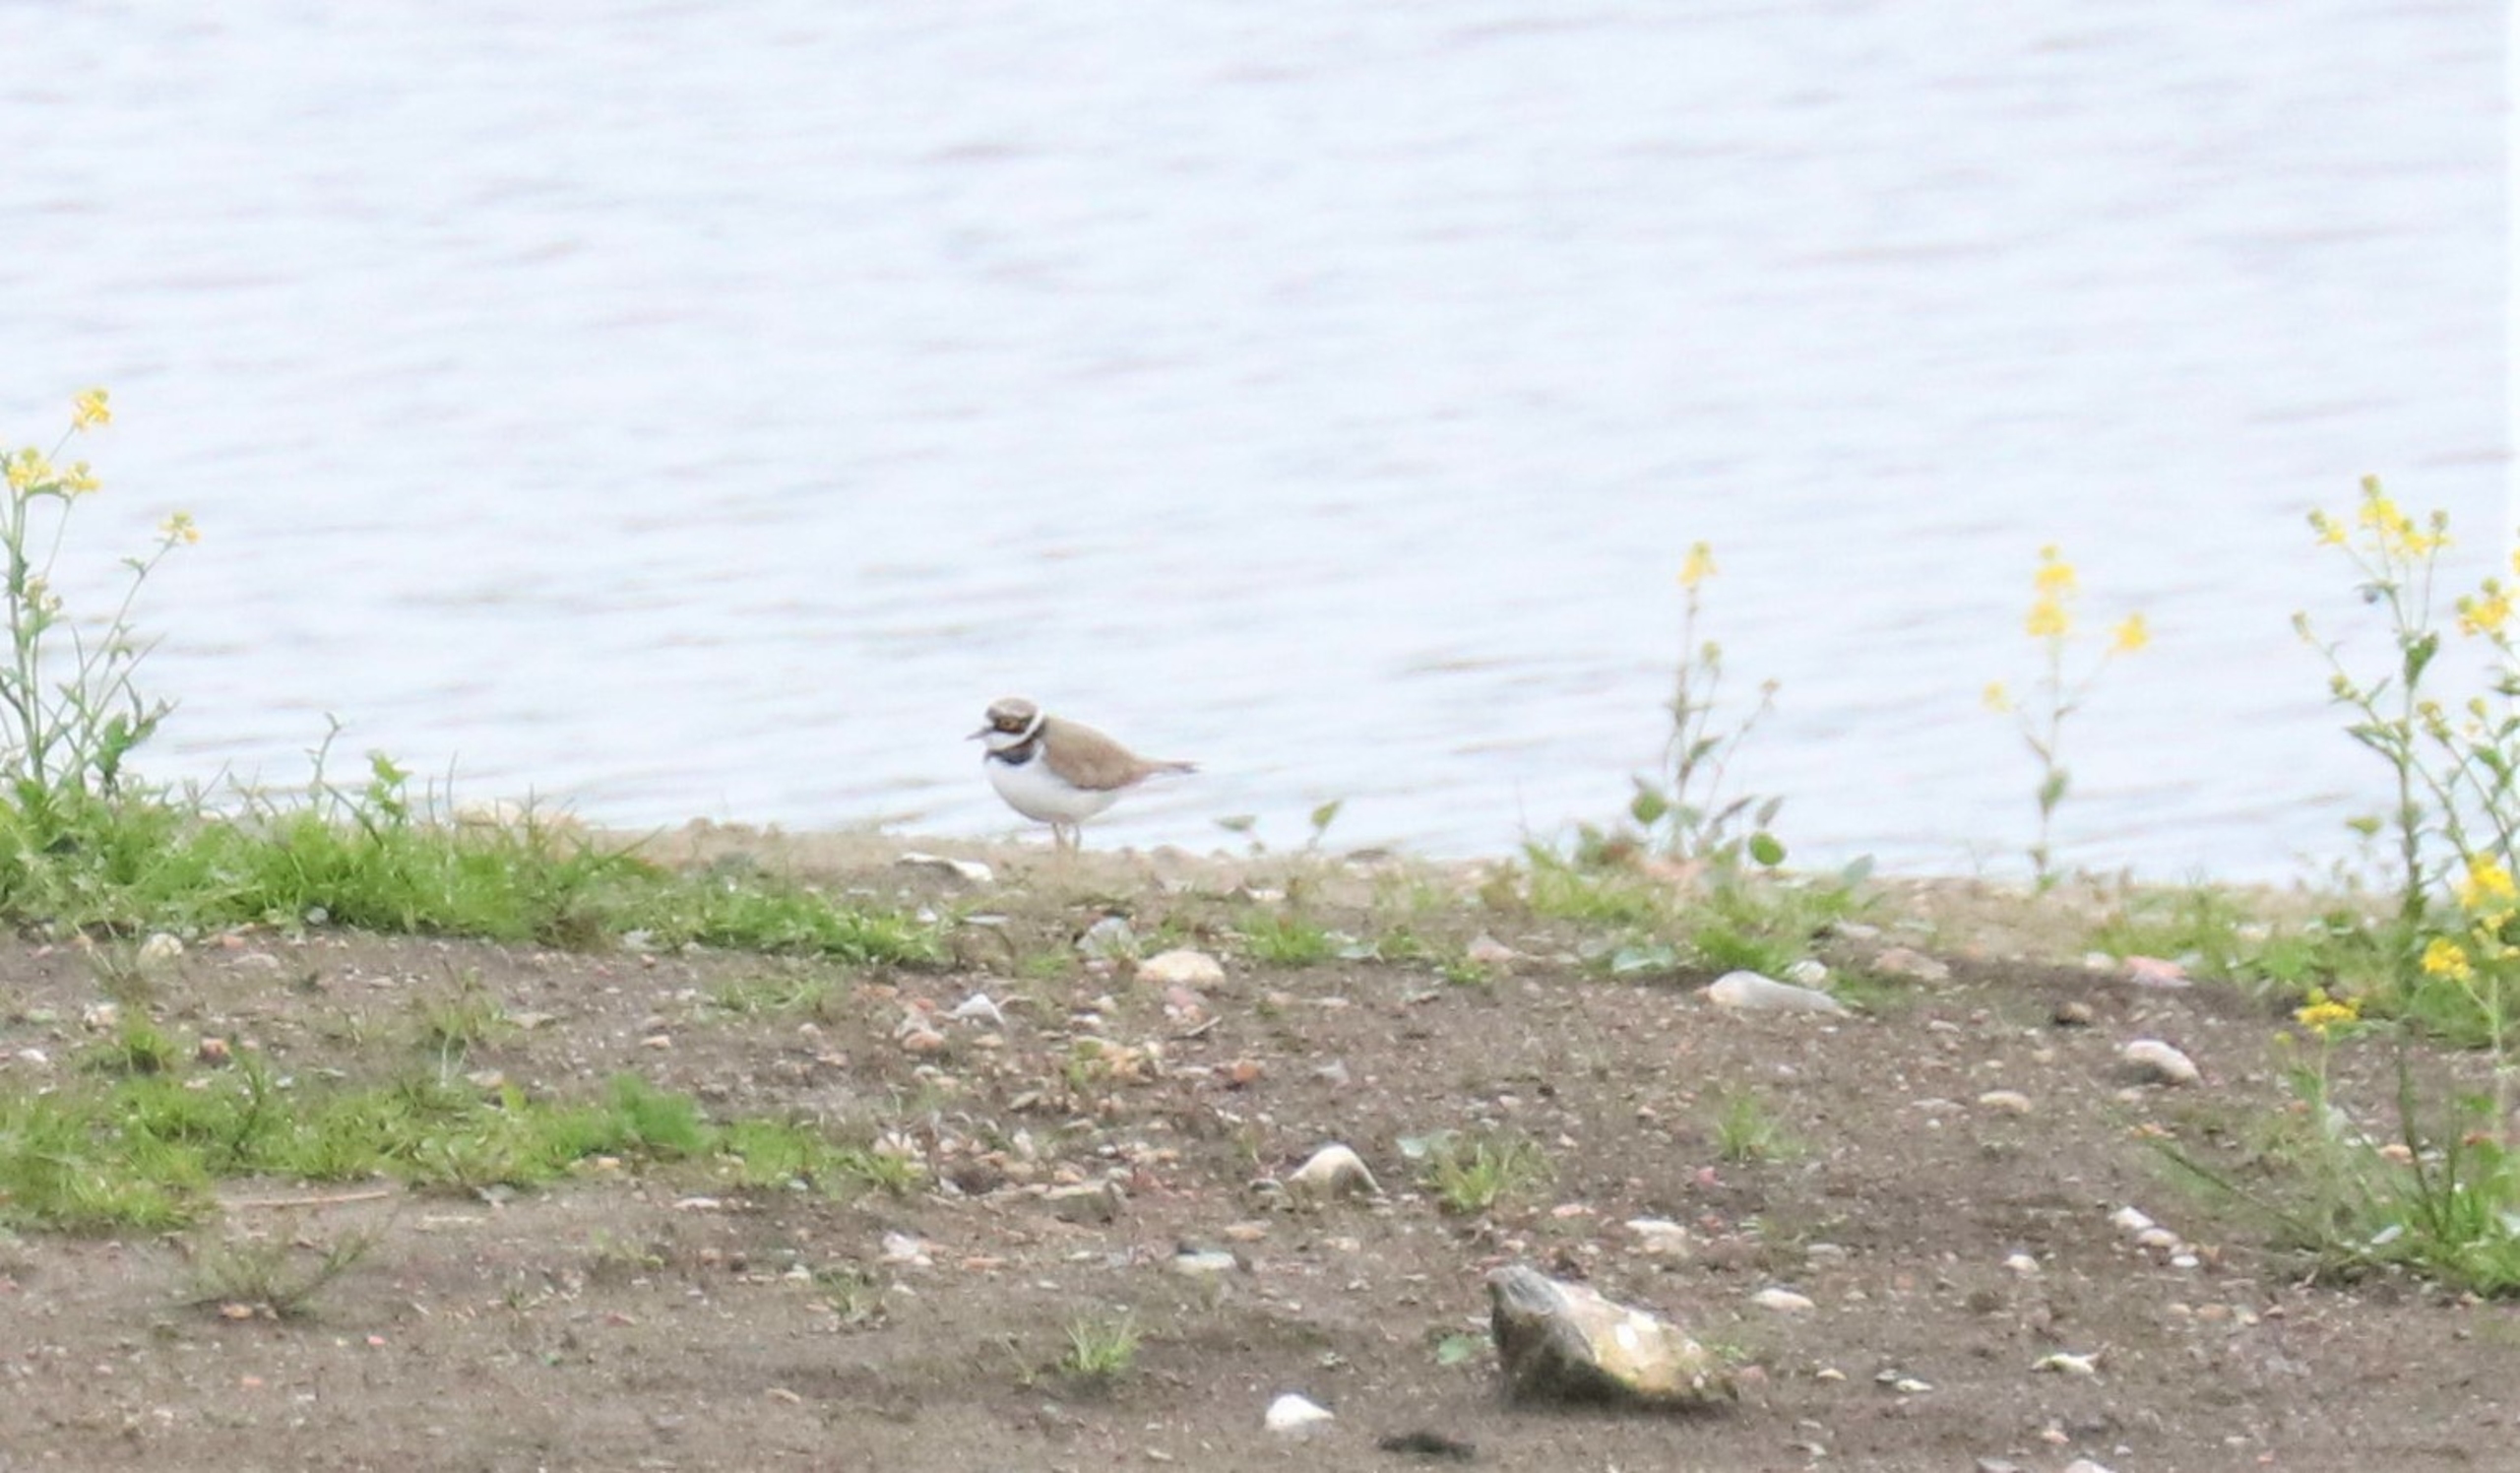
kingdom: Animalia
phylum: Chordata
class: Aves
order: Charadriiformes
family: Charadriidae
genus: Charadrius
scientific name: Charadrius dubius
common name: Lille præstekrave
